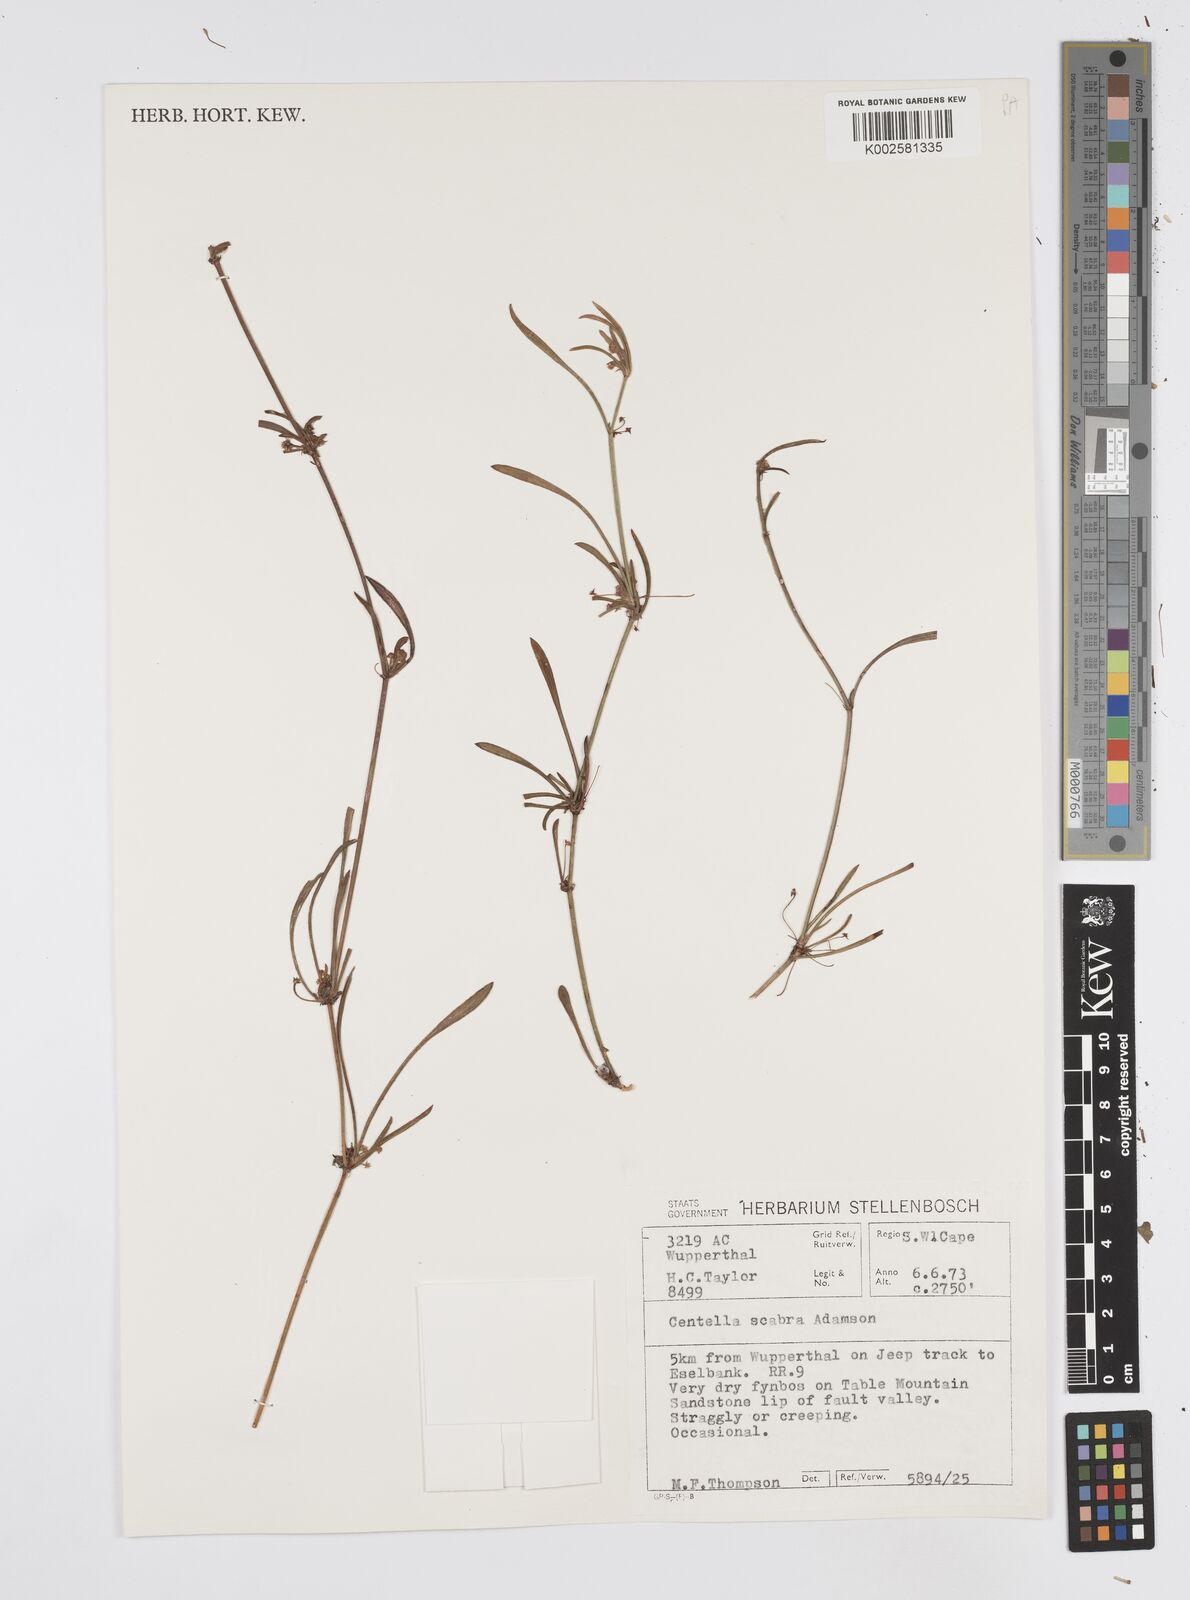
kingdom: Plantae
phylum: Tracheophyta
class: Magnoliopsida
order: Apiales
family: Apiaceae
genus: Centella
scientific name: Centella scabra
